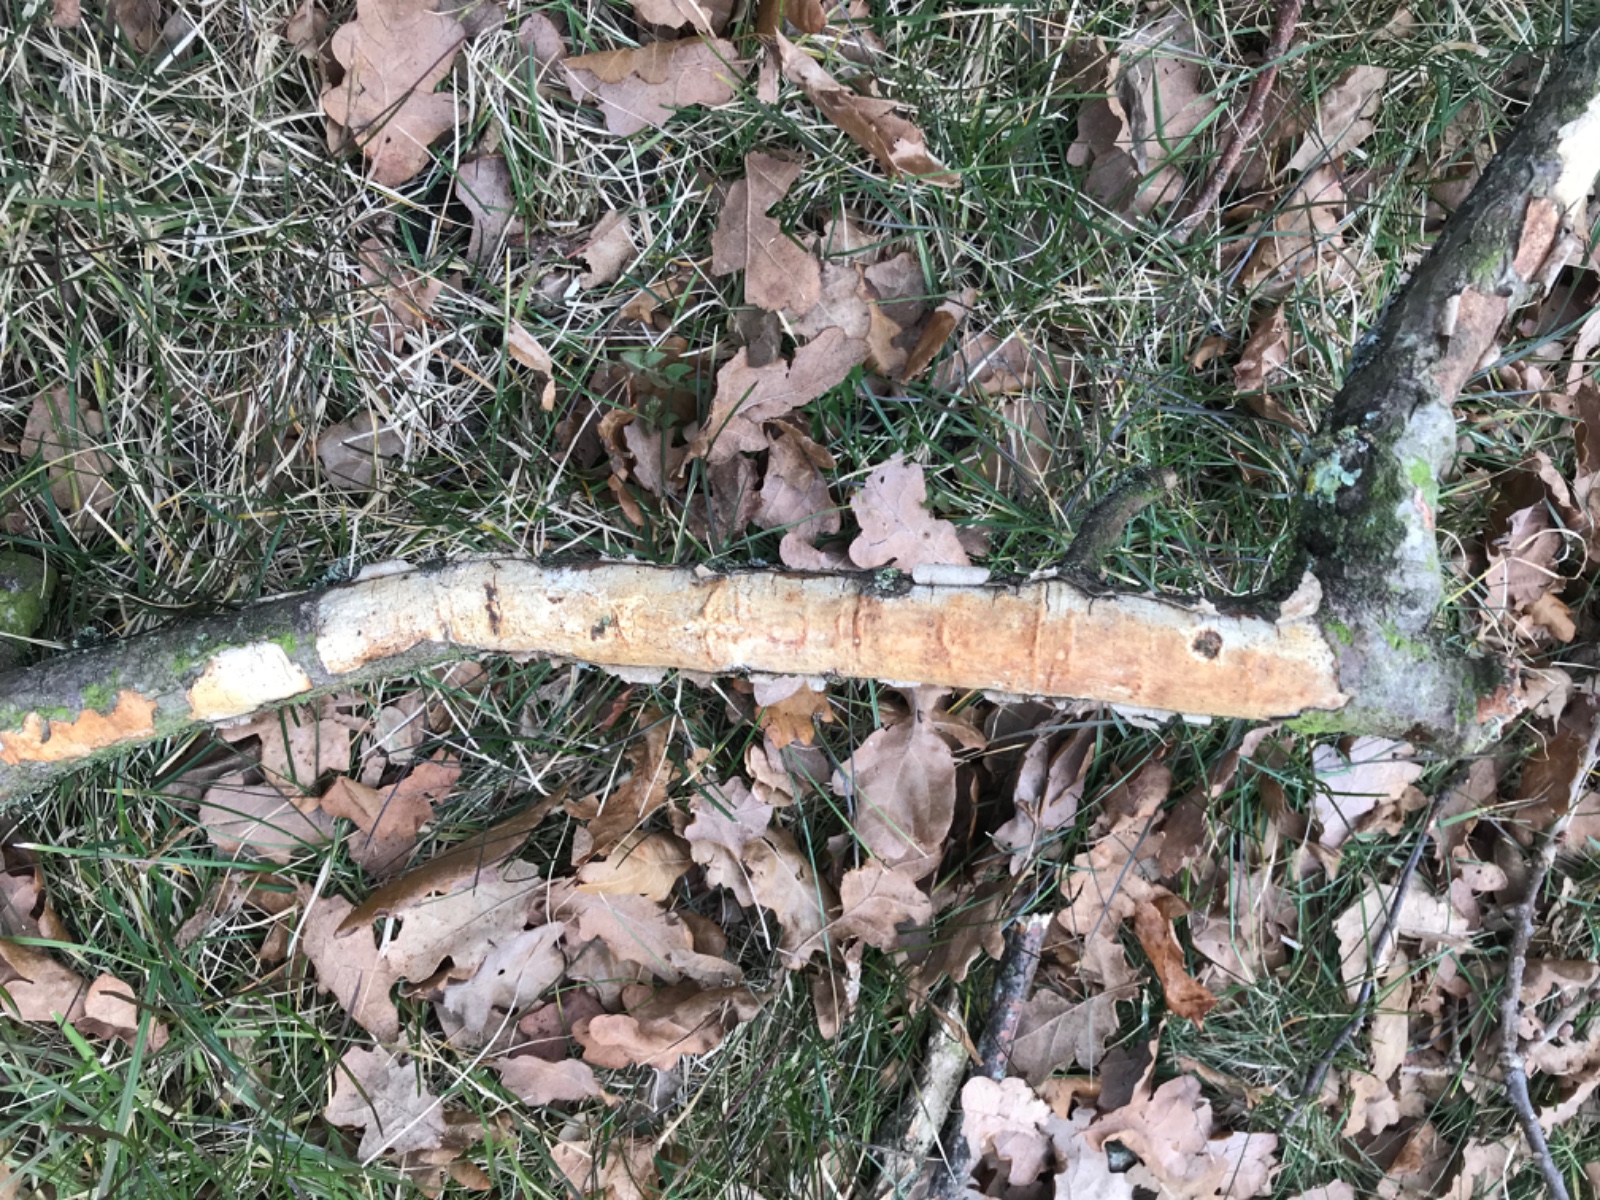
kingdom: Fungi
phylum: Basidiomycota
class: Agaricomycetes
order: Corticiales
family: Vuilleminiaceae
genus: Vuilleminia
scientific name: Vuilleminia comedens
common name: almindelig barksprænger
